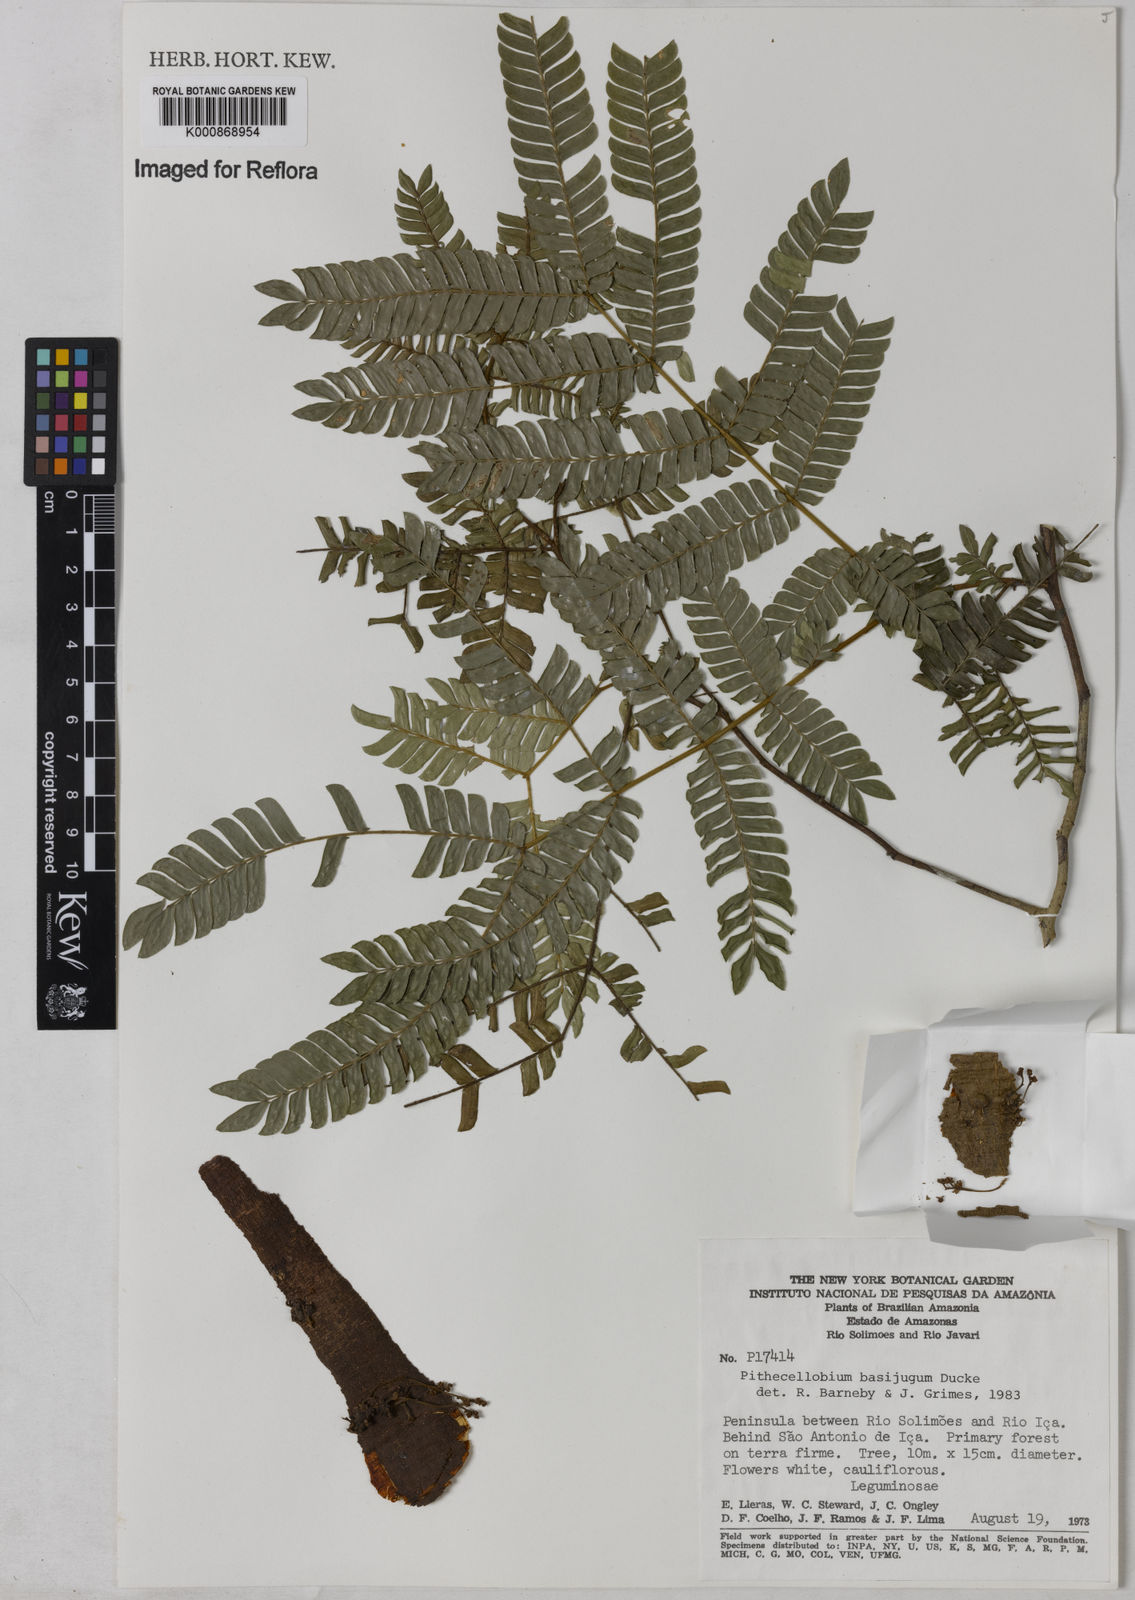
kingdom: Plantae
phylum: Tracheophyta
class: Magnoliopsida
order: Fabales
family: Fabaceae
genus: Zygia
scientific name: Zygia basijuga
